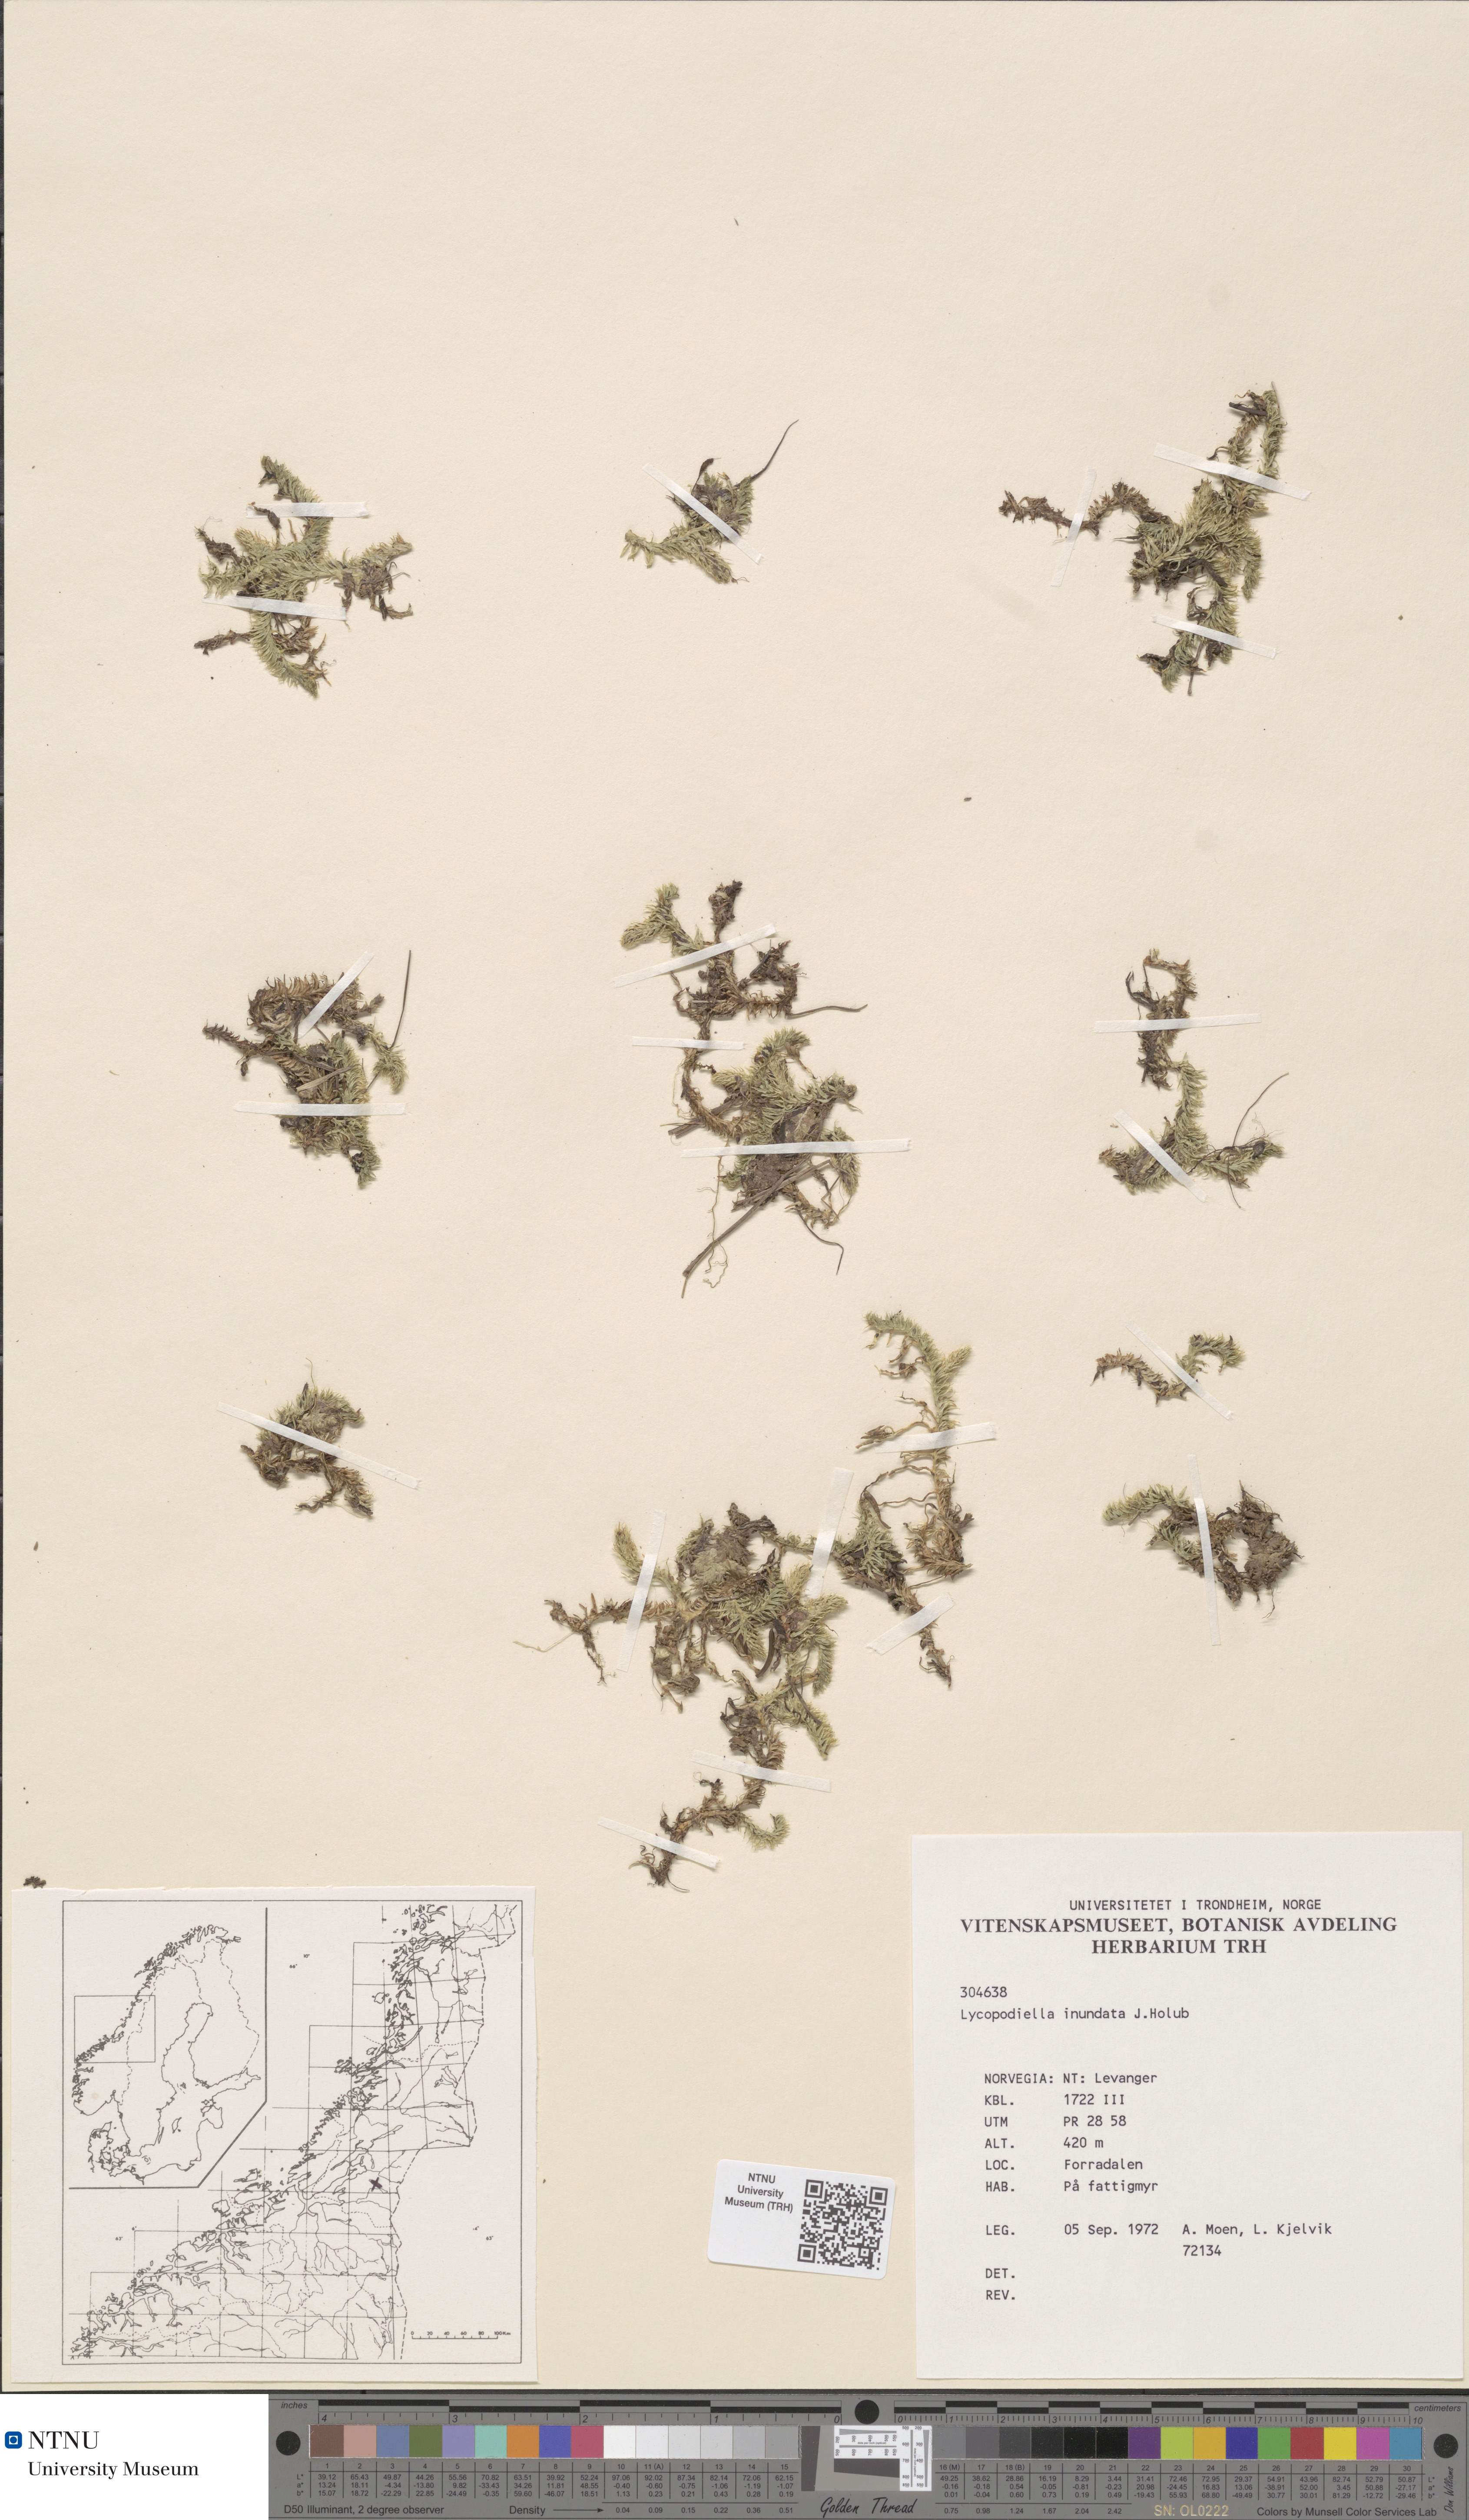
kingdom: Plantae
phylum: Tracheophyta
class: Lycopodiopsida
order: Lycopodiales
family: Lycopodiaceae
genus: Lycopodiella
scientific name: Lycopodiella inundata
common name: Marsh clubmoss
